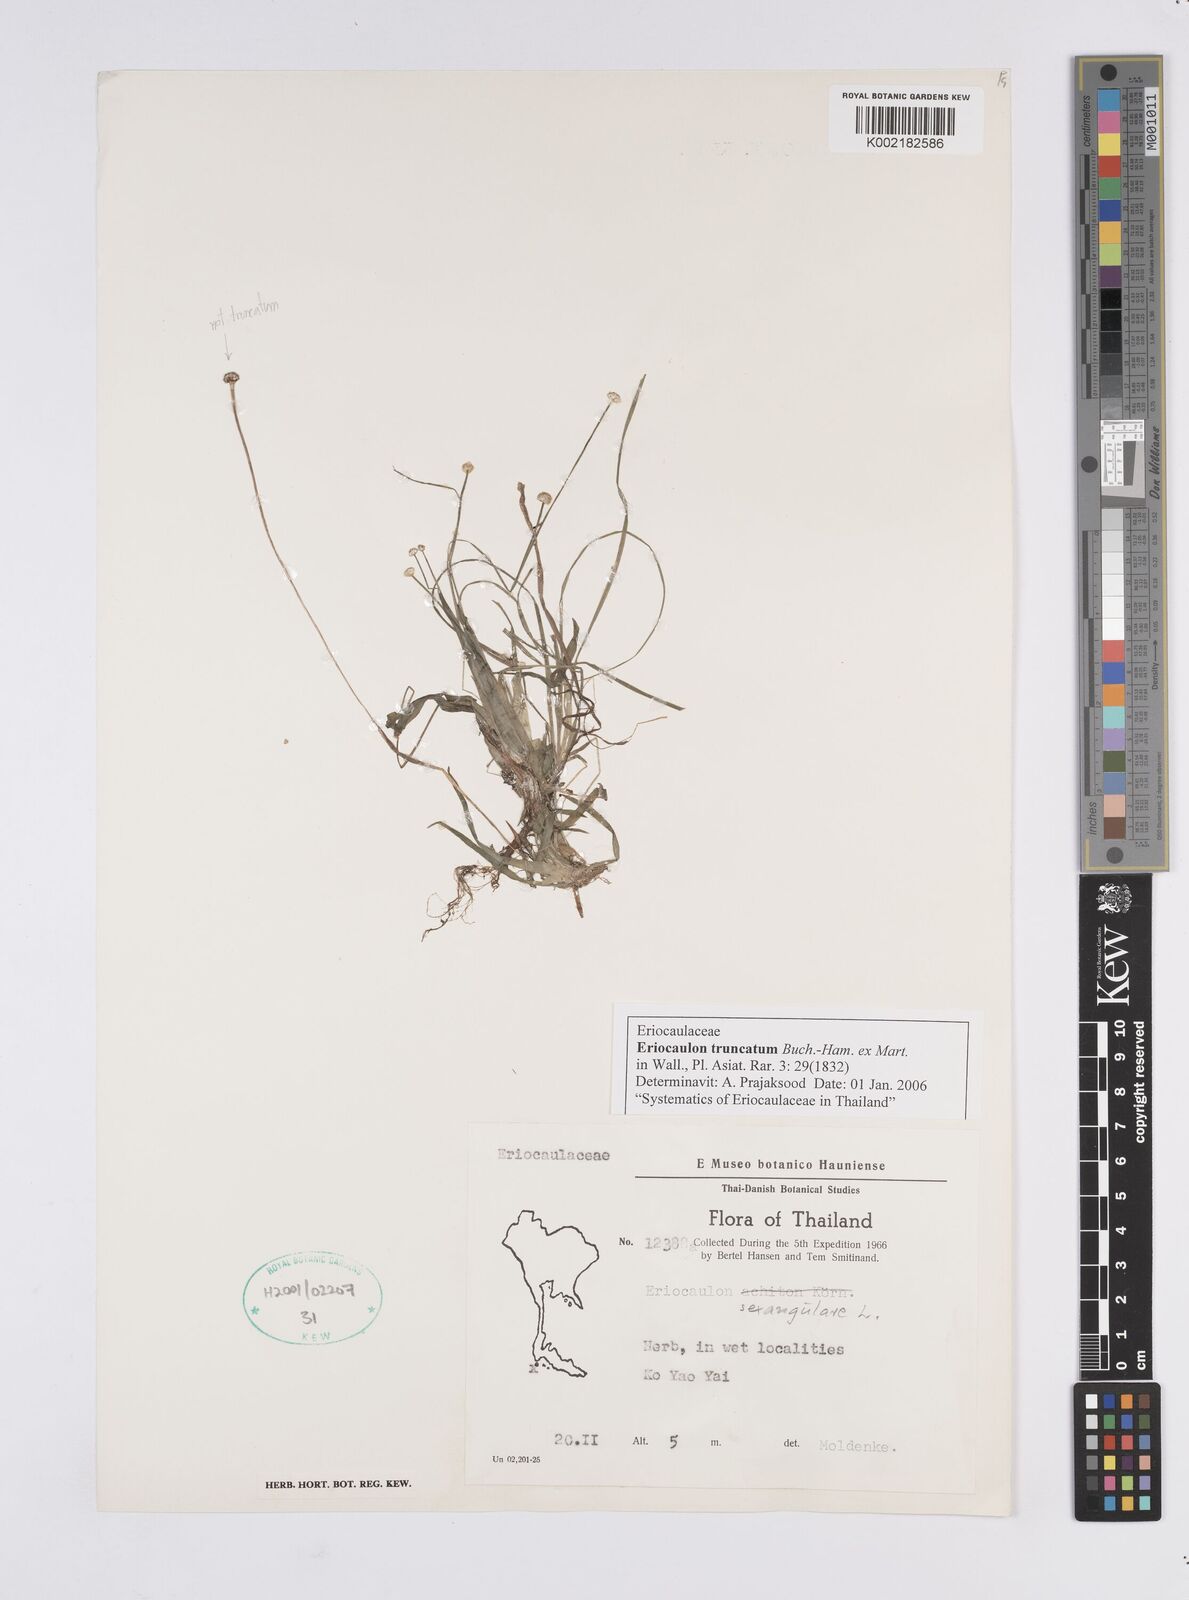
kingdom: Plantae
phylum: Tracheophyta
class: Liliopsida
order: Poales
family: Eriocaulaceae
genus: Eriocaulon
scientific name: Eriocaulon truncatum
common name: Short pipe-wort
